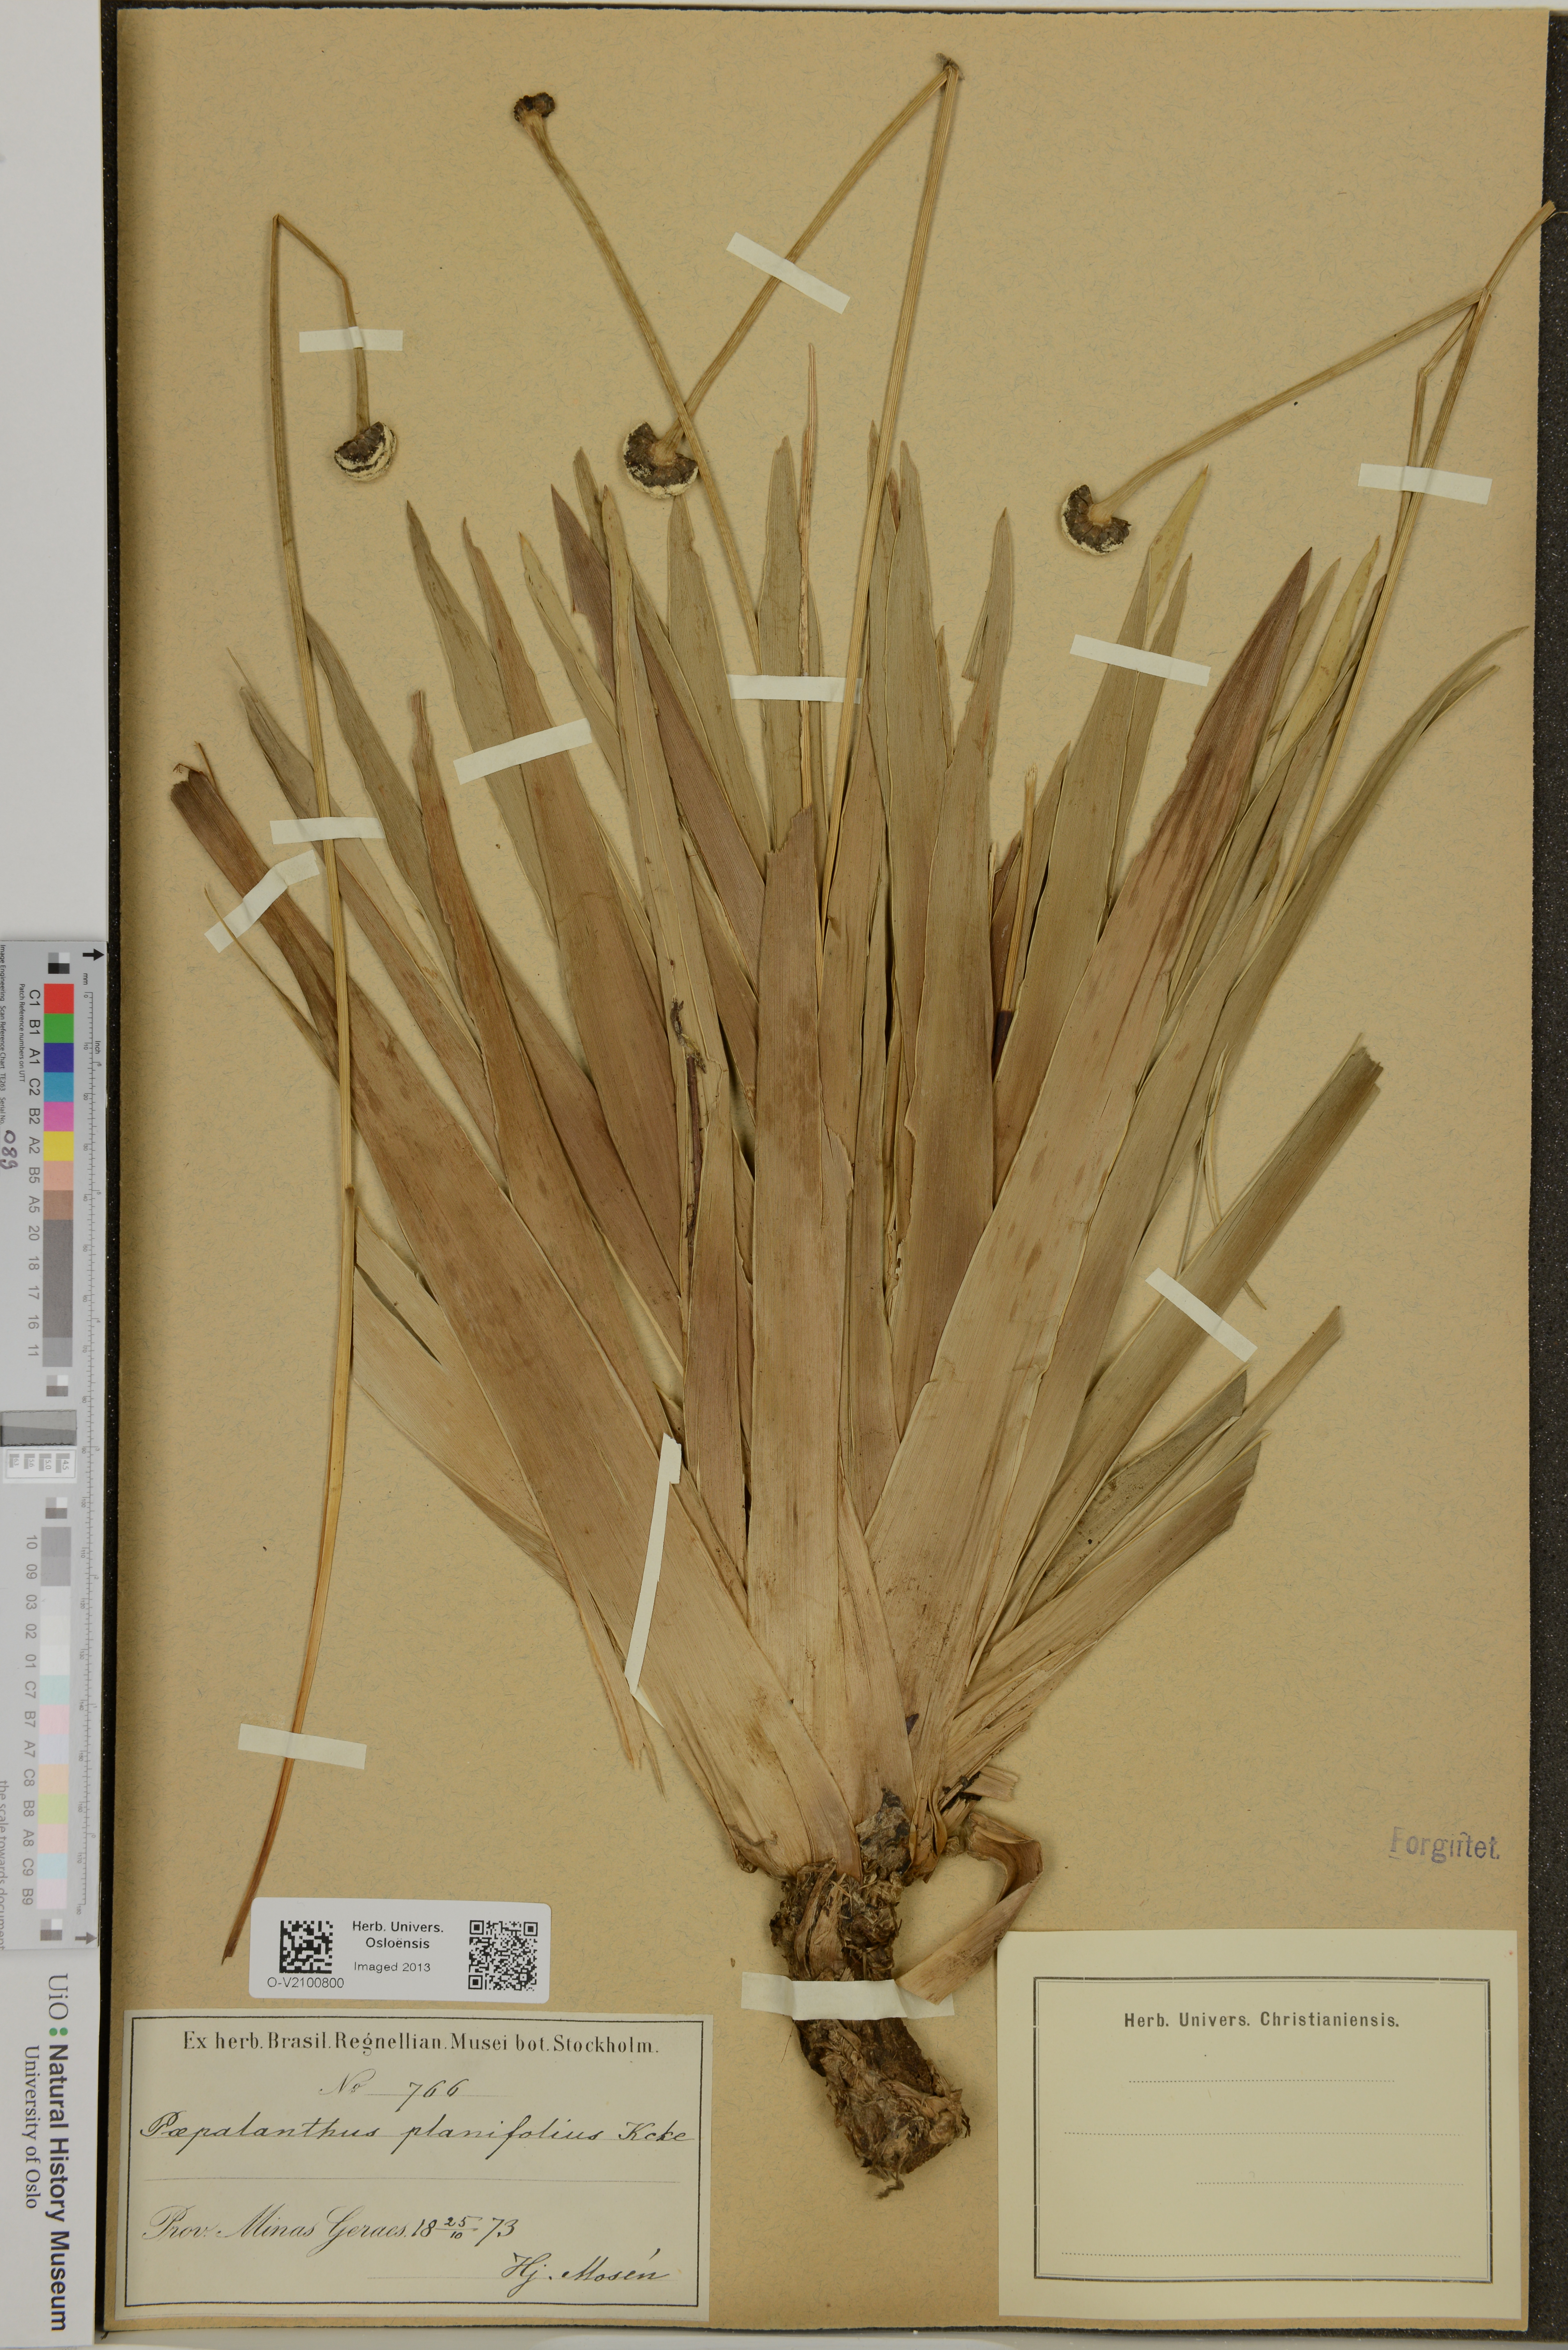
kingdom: Plantae
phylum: Tracheophyta
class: Liliopsida
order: Poales
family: Eriocaulaceae
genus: Paepalanthus
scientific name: Paepalanthus planifolius
